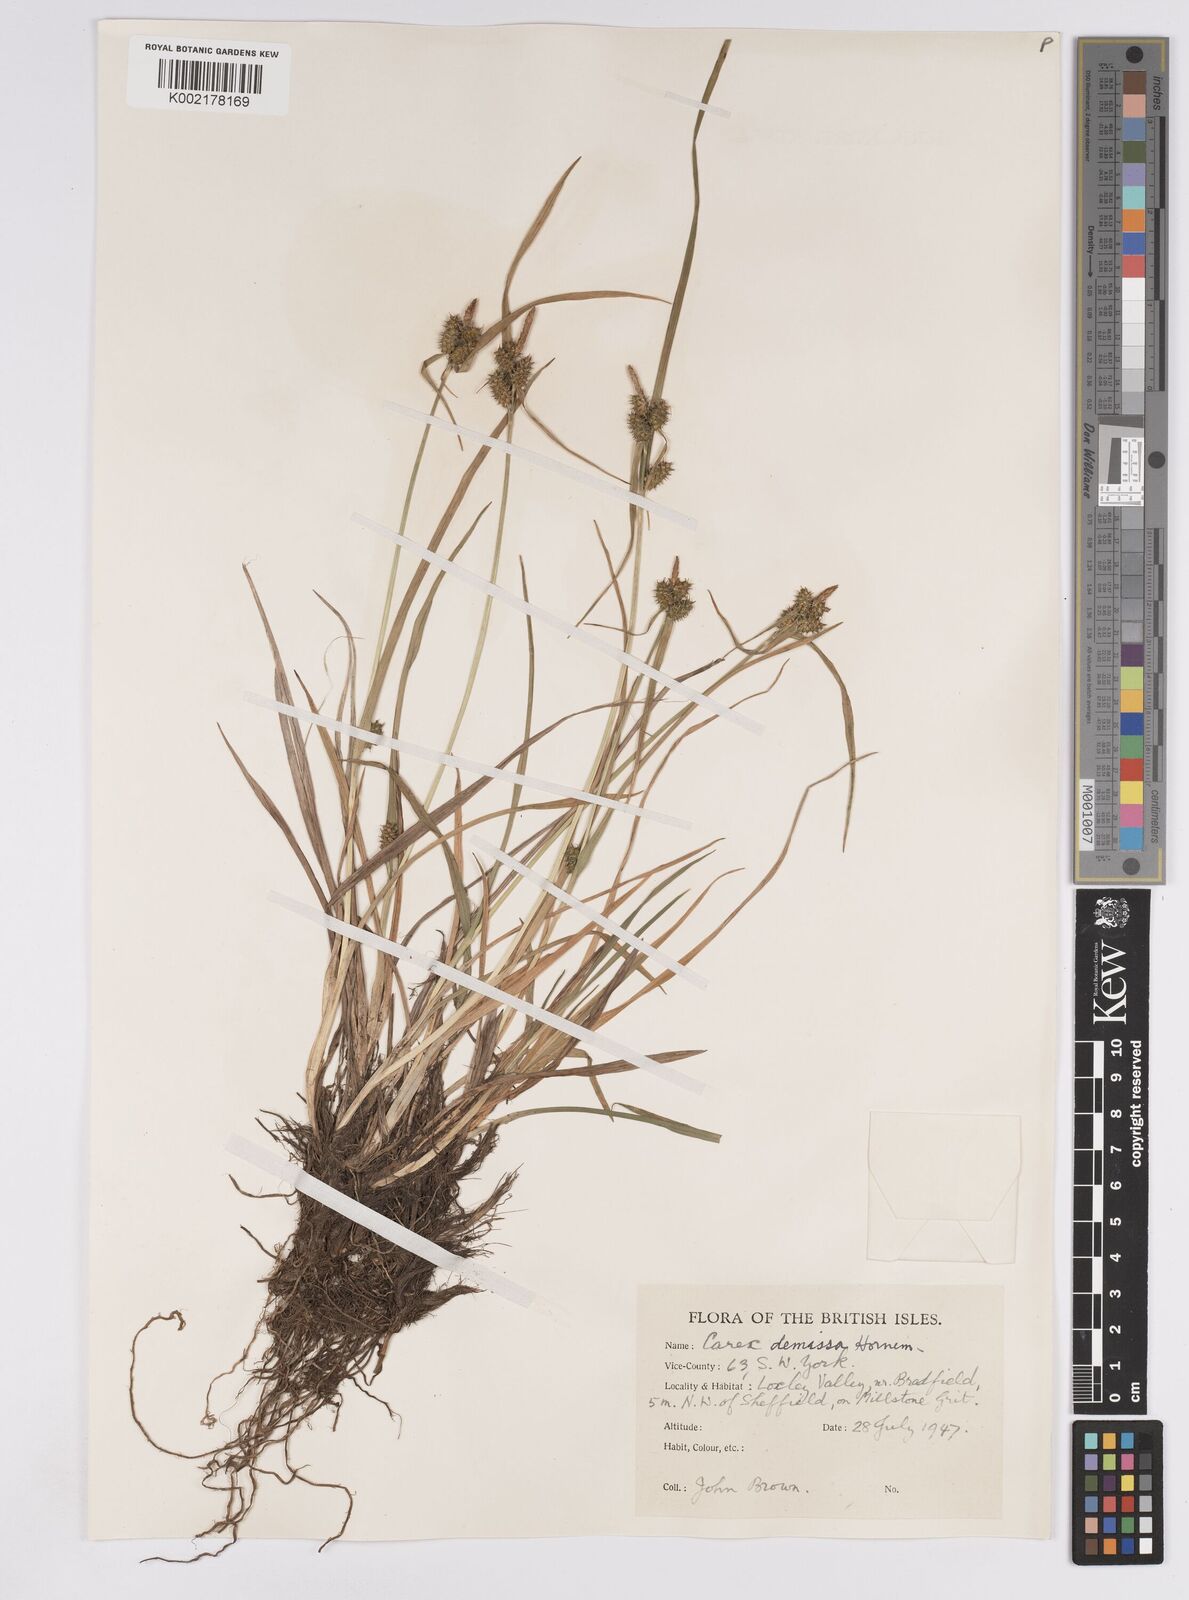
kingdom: Plantae
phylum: Tracheophyta
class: Liliopsida
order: Poales
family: Cyperaceae
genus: Carex
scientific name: Carex demissa
